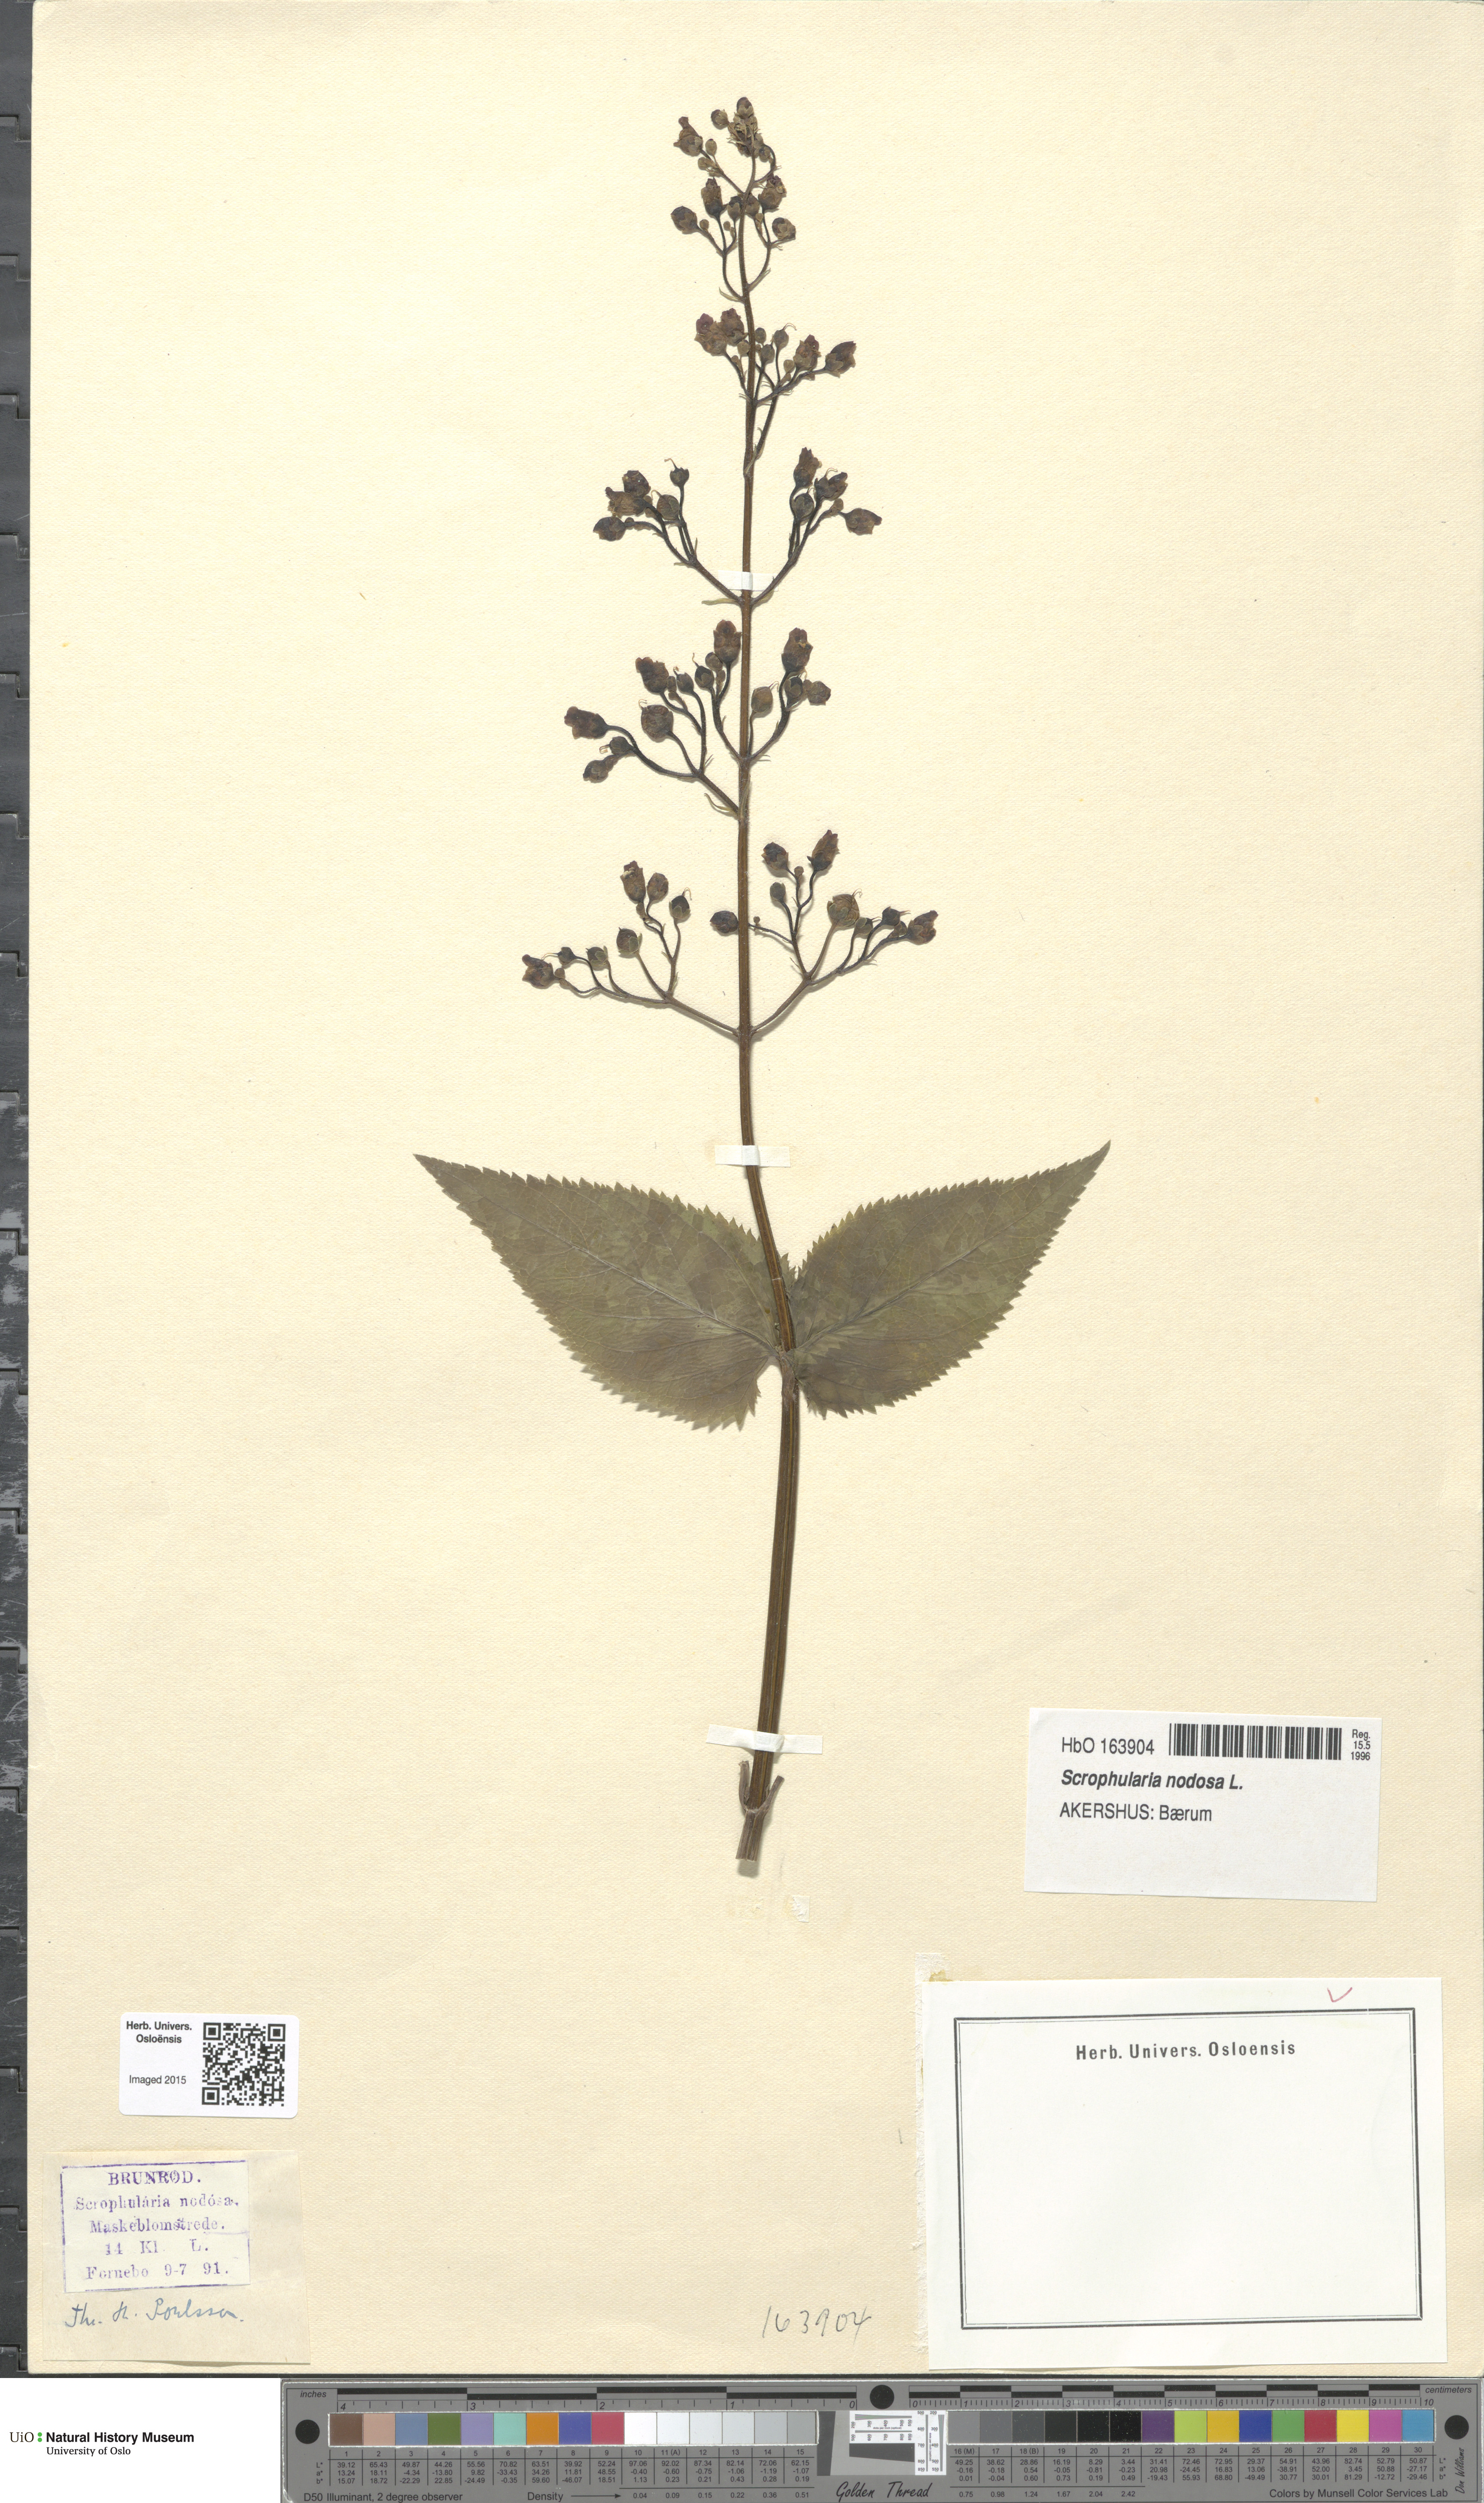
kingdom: Plantae
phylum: Tracheophyta
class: Magnoliopsida
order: Lamiales
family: Scrophulariaceae
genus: Scrophularia
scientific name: Scrophularia nodosa
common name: Common figwort
